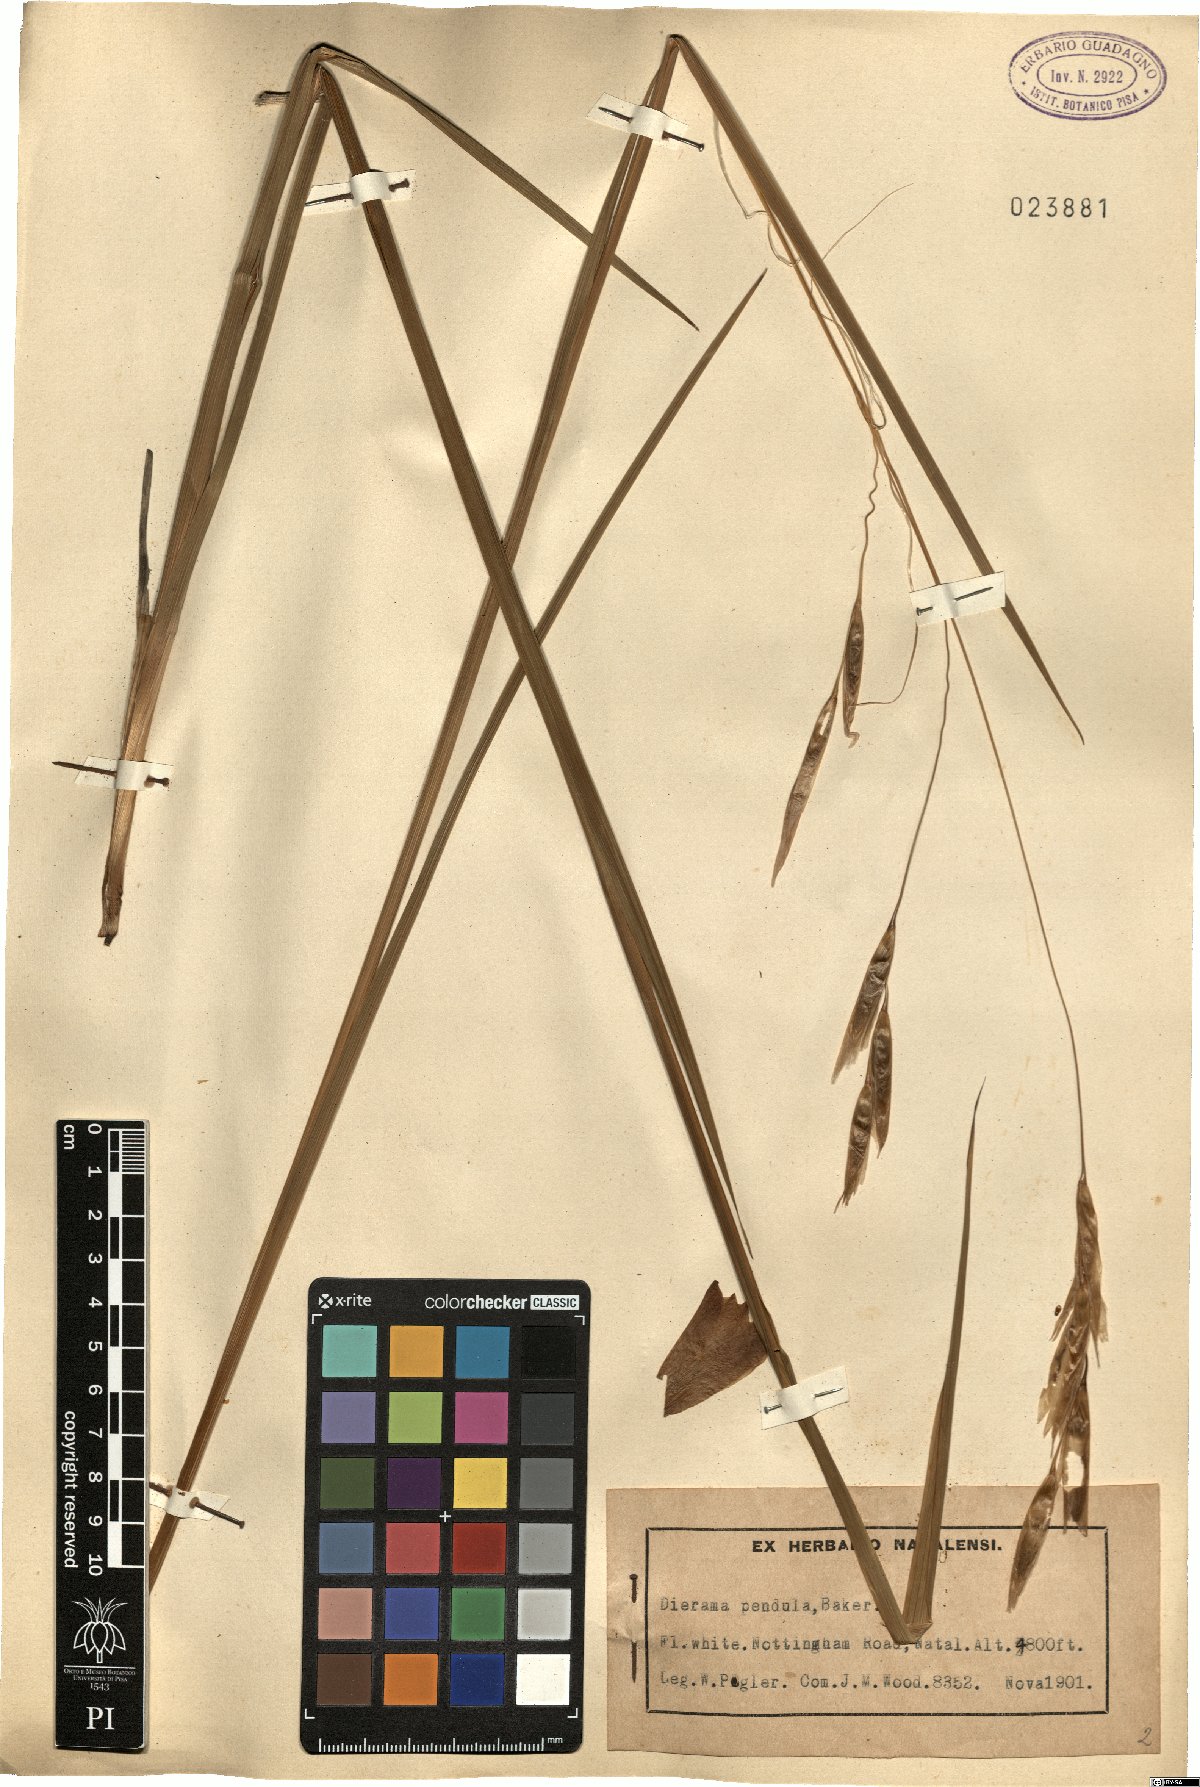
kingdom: Plantae
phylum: Tracheophyta
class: Liliopsida
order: Asparagales
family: Iridaceae
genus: Dierama
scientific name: Dierama pendulum
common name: Grassy-bell
